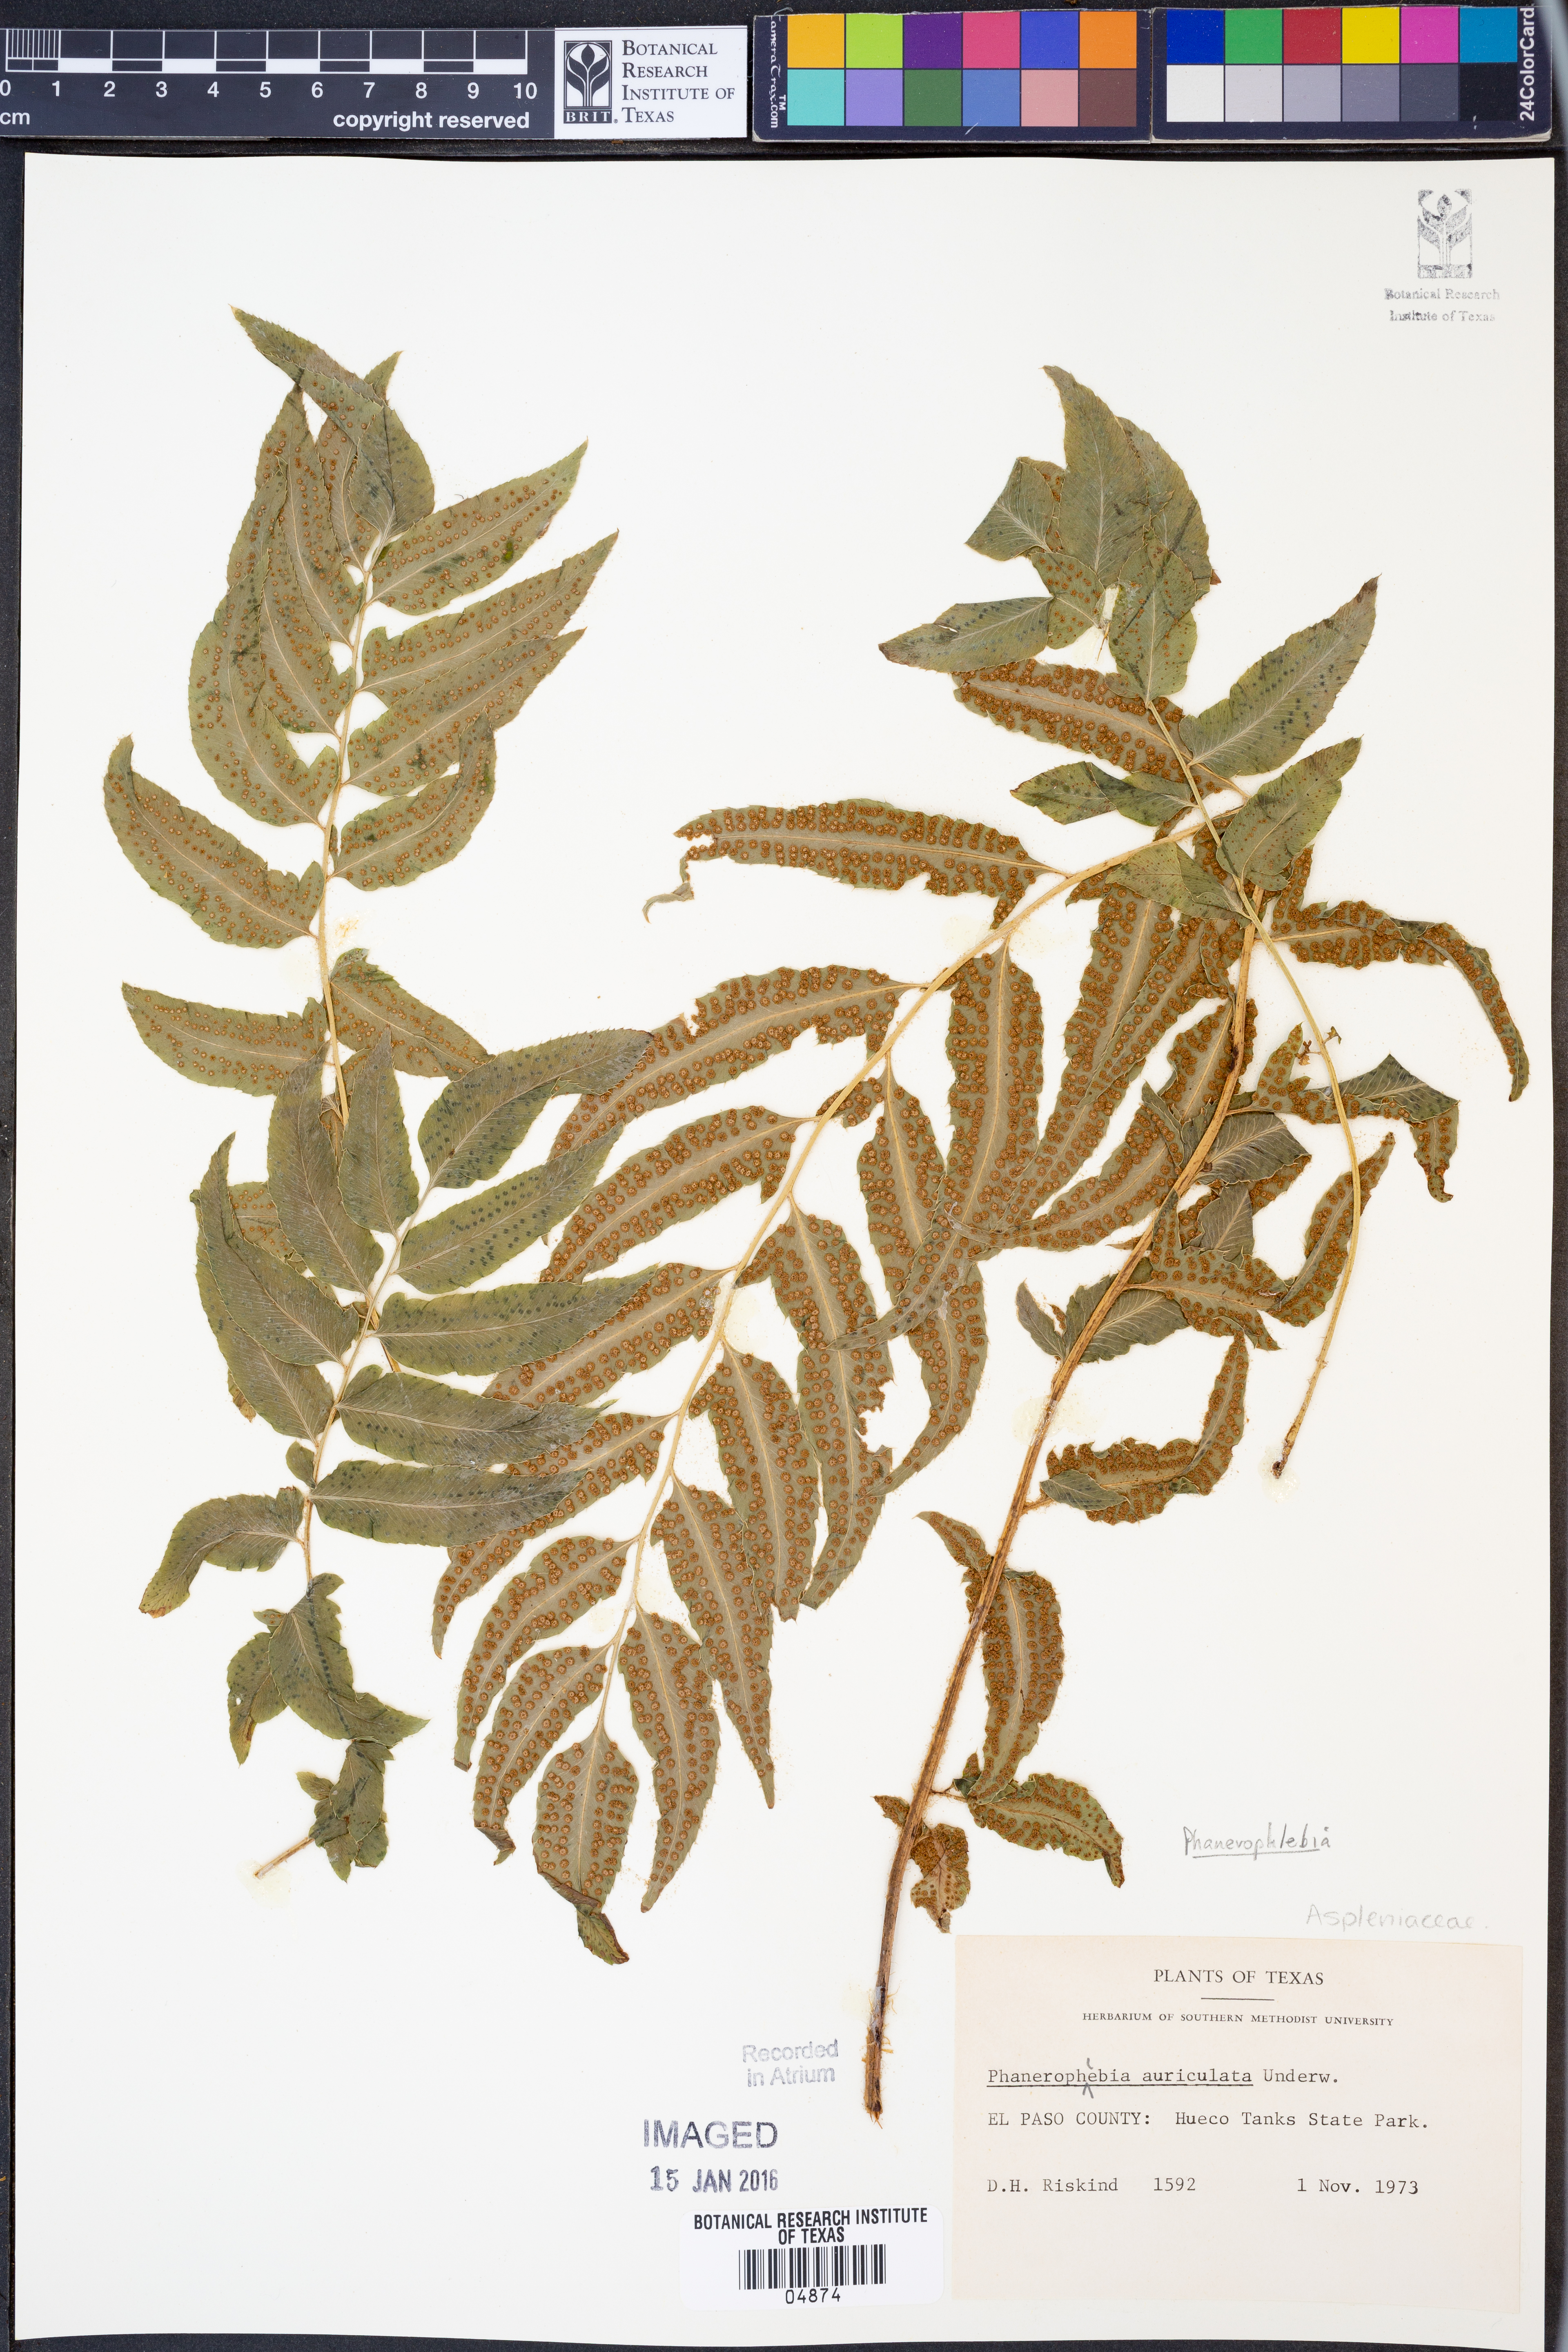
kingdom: Plantae
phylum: Tracheophyta
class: Polypodiopsida
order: Polypodiales
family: Dryopteridaceae
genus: Phanerophlebia
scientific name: Phanerophlebia auriculata
